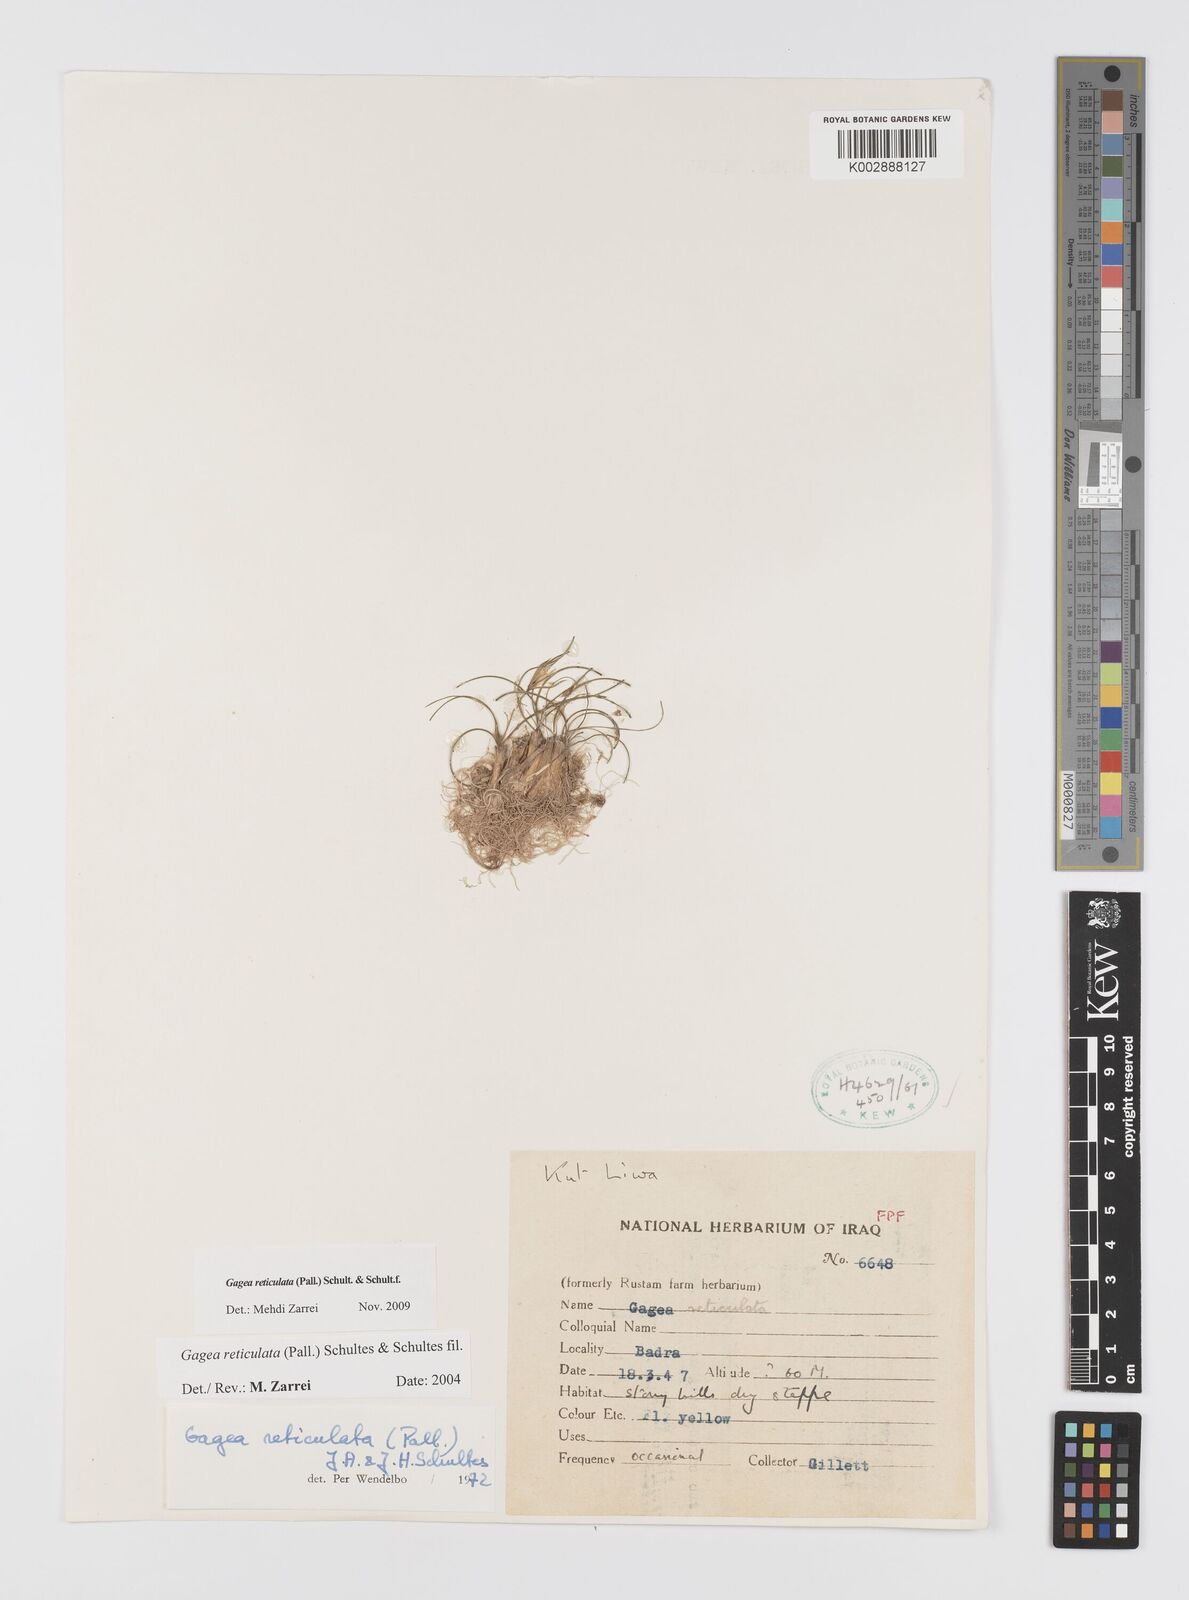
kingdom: Plantae
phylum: Tracheophyta
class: Liliopsida
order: Liliales
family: Liliaceae
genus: Gagea
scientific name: Gagea reticulata
